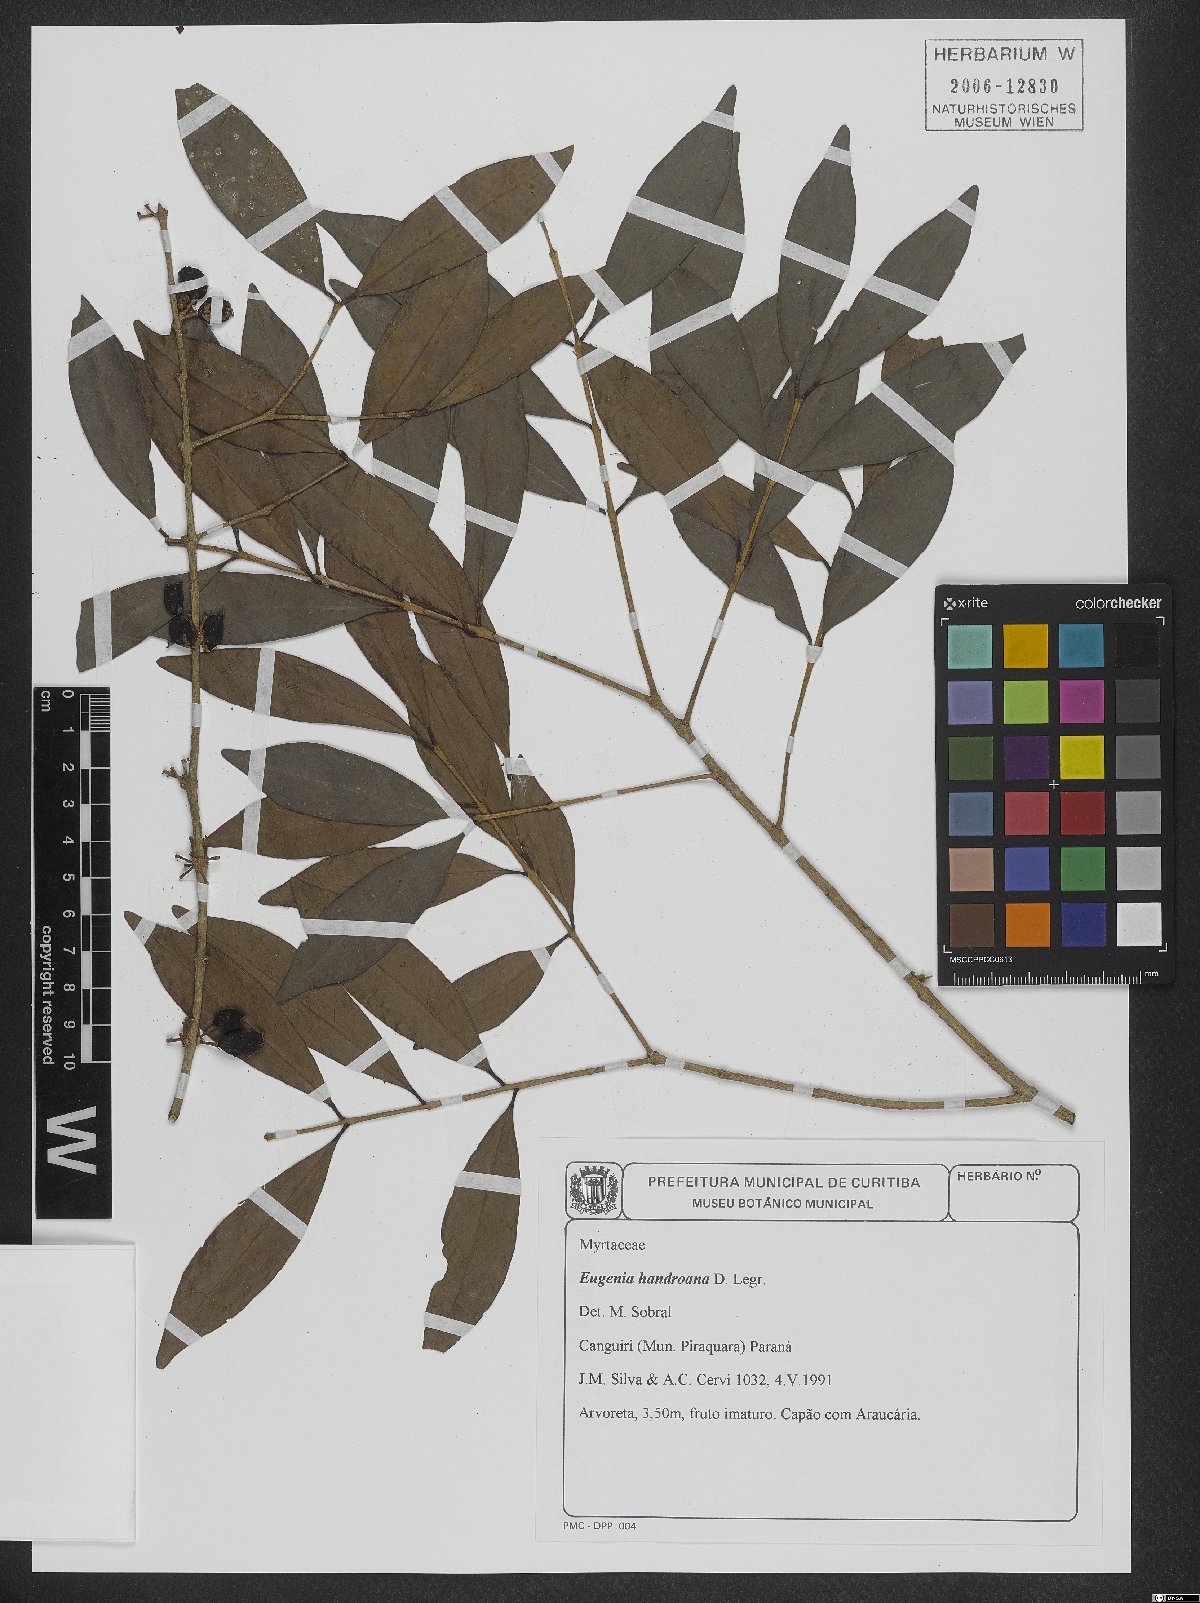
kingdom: Plantae
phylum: Tracheophyta
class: Magnoliopsida
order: Myrtales
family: Myrtaceae
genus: Eugenia
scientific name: Eugenia handroana
